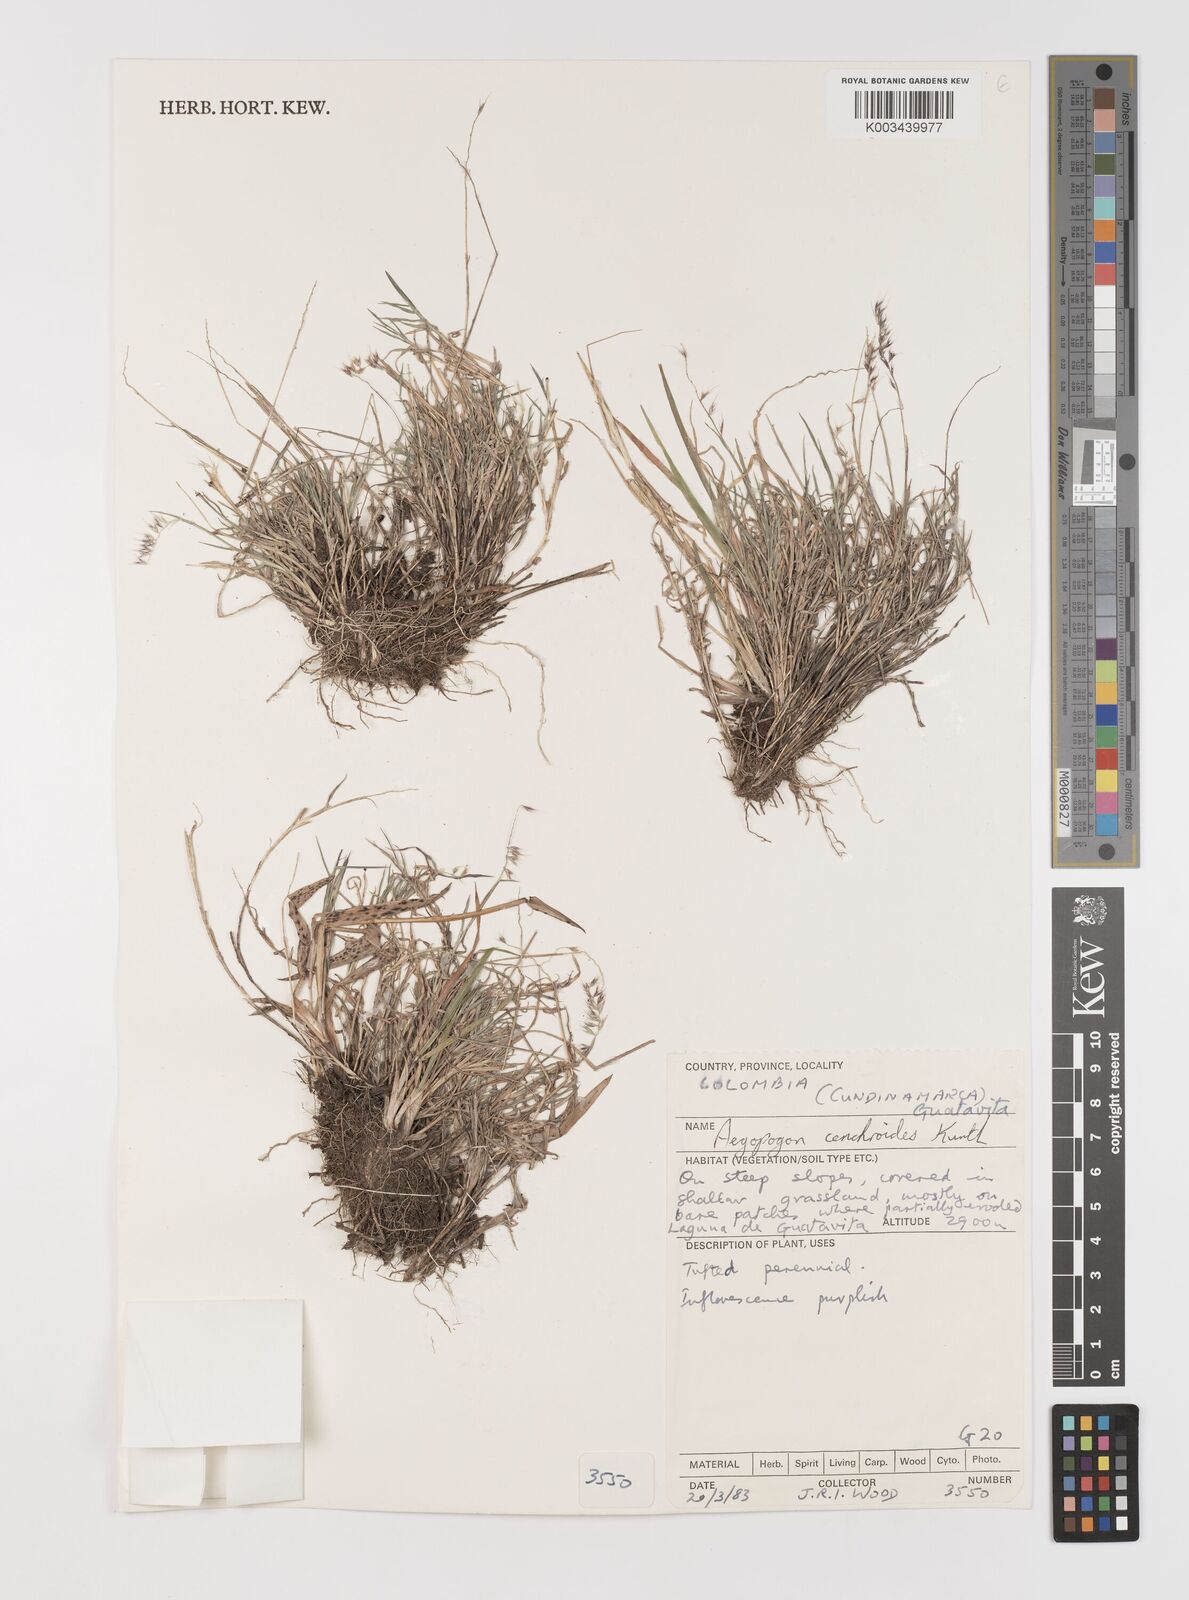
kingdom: Plantae
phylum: Tracheophyta
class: Liliopsida
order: Poales
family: Poaceae
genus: Muhlenbergia
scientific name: Muhlenbergia cenchroides
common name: Relaxgrass
